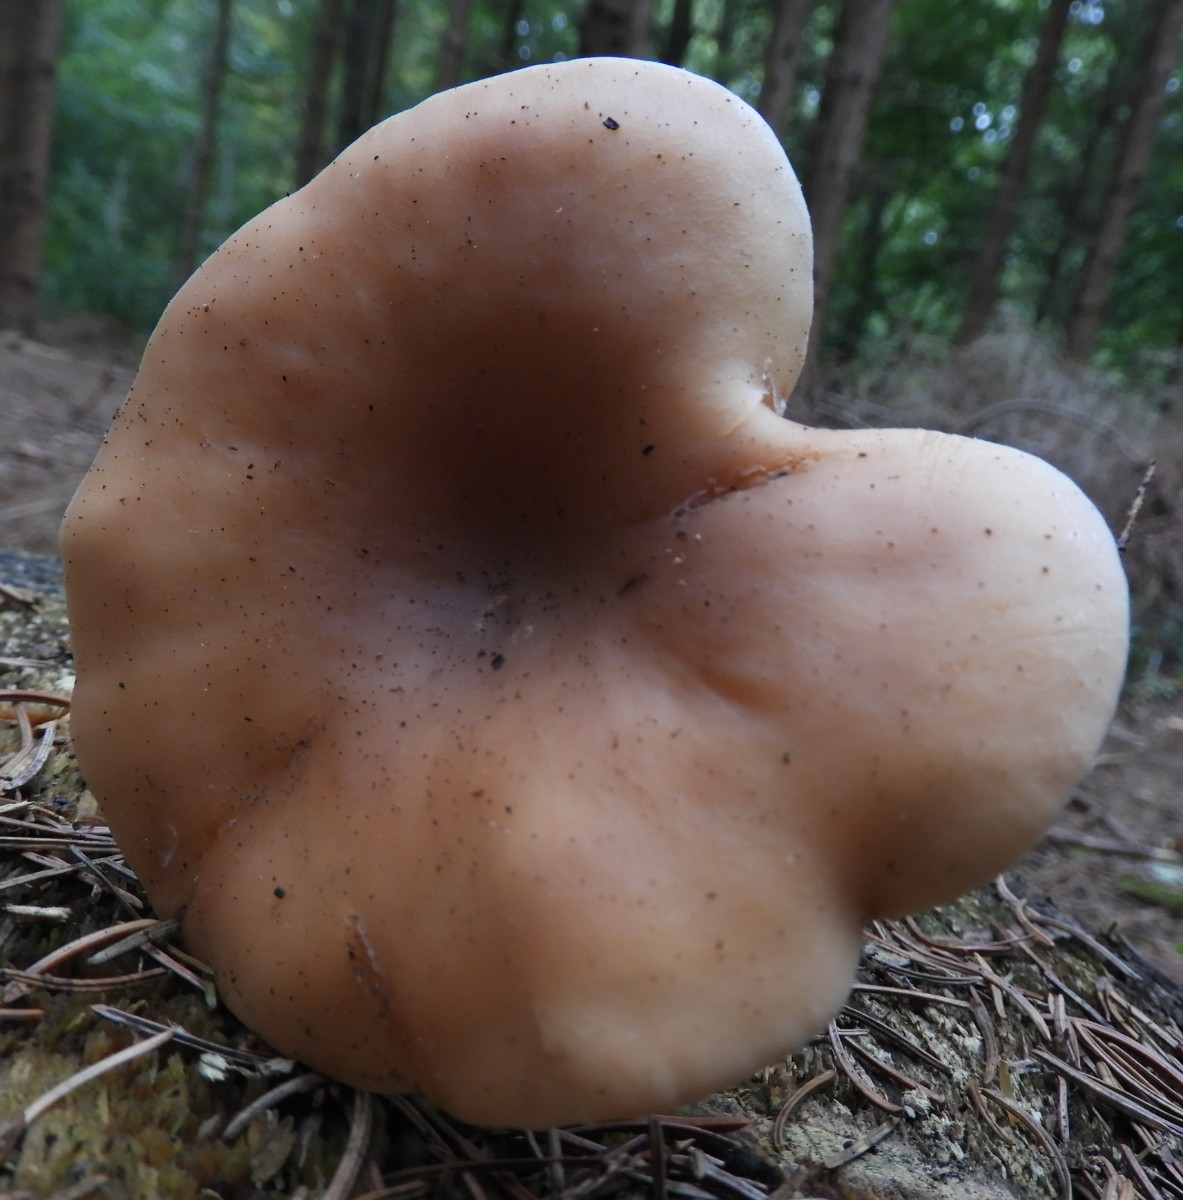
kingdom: Fungi
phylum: Basidiomycota
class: Agaricomycetes
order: Agaricales
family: Tricholomataceae
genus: Paralepista
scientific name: Paralepista flaccida
